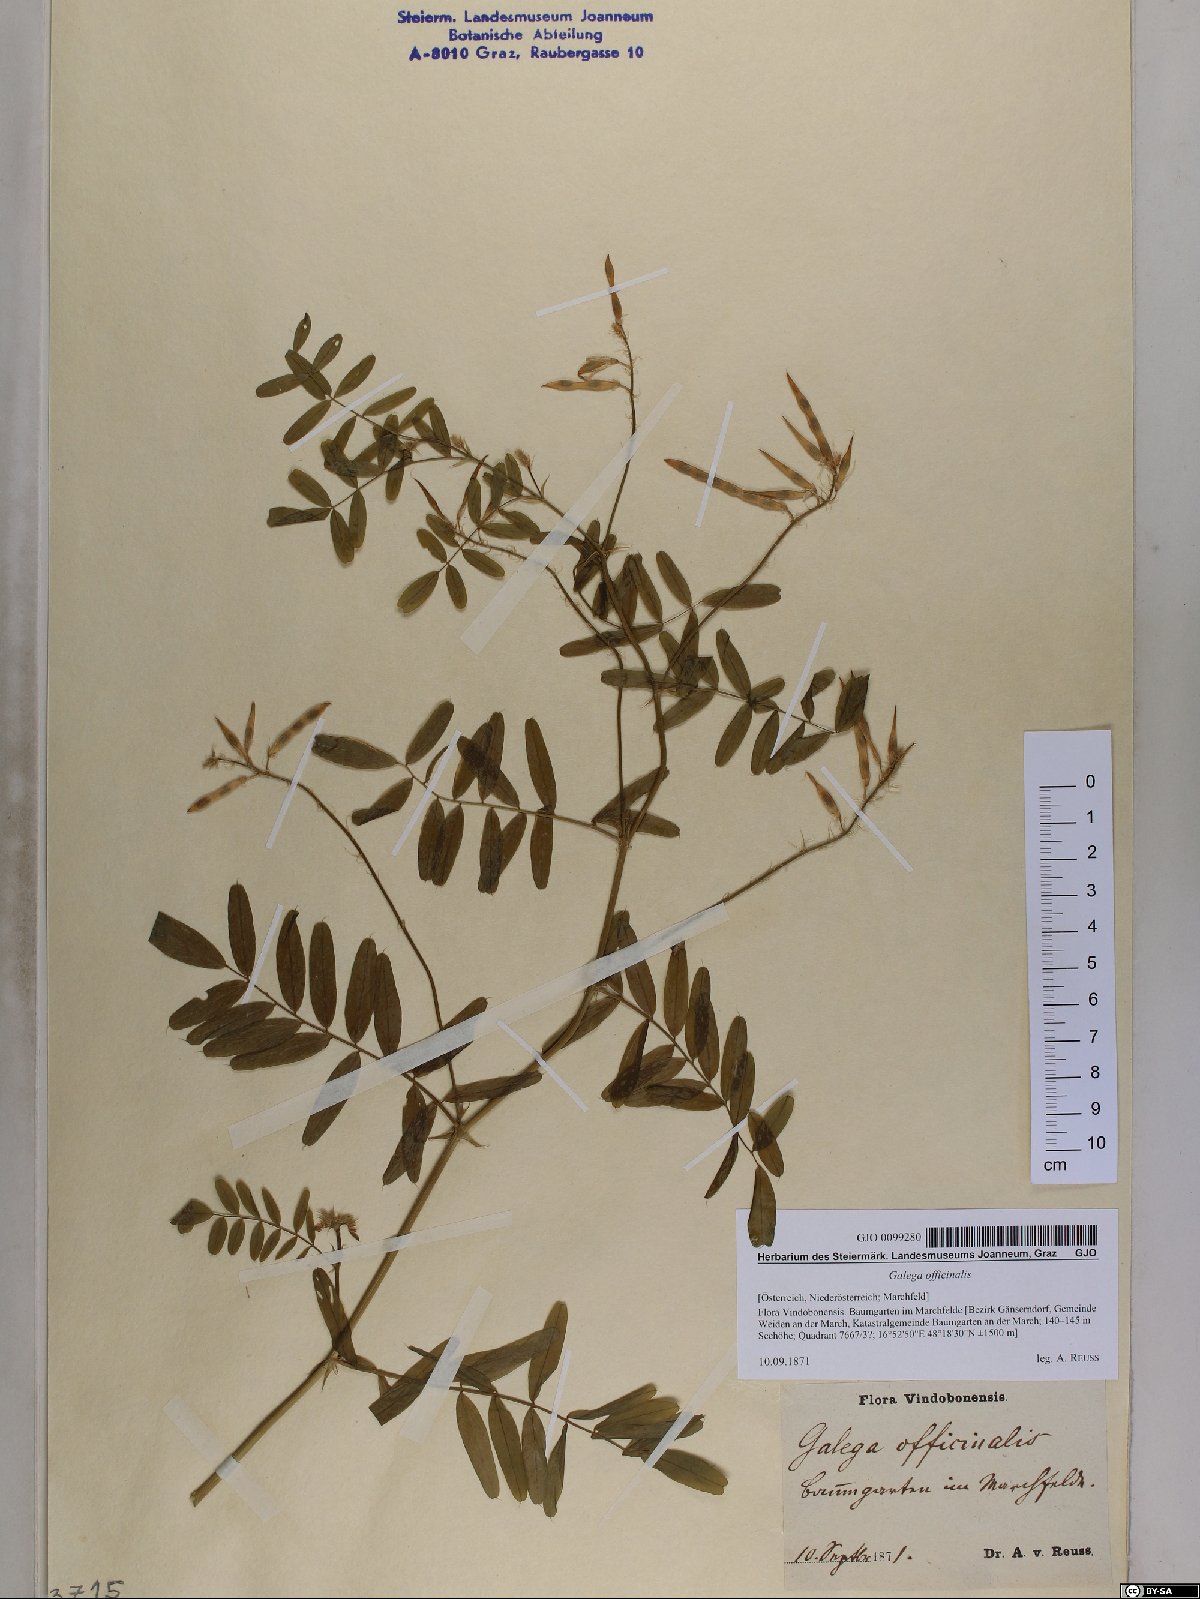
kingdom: Plantae
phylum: Tracheophyta
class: Magnoliopsida
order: Fabales
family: Fabaceae
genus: Galega
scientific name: Galega officinalis
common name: Goat's-rue
